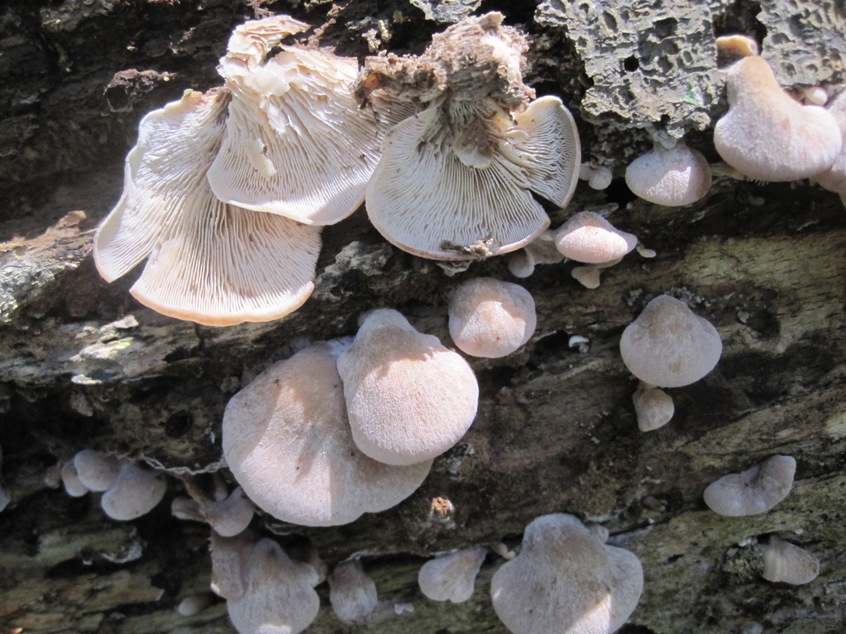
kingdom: Fungi
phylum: Basidiomycota
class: Agaricomycetes
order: Russulales
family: Auriscalpiaceae
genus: Lentinellus
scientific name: Lentinellus ursinus
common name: børstehåret savbladhat
